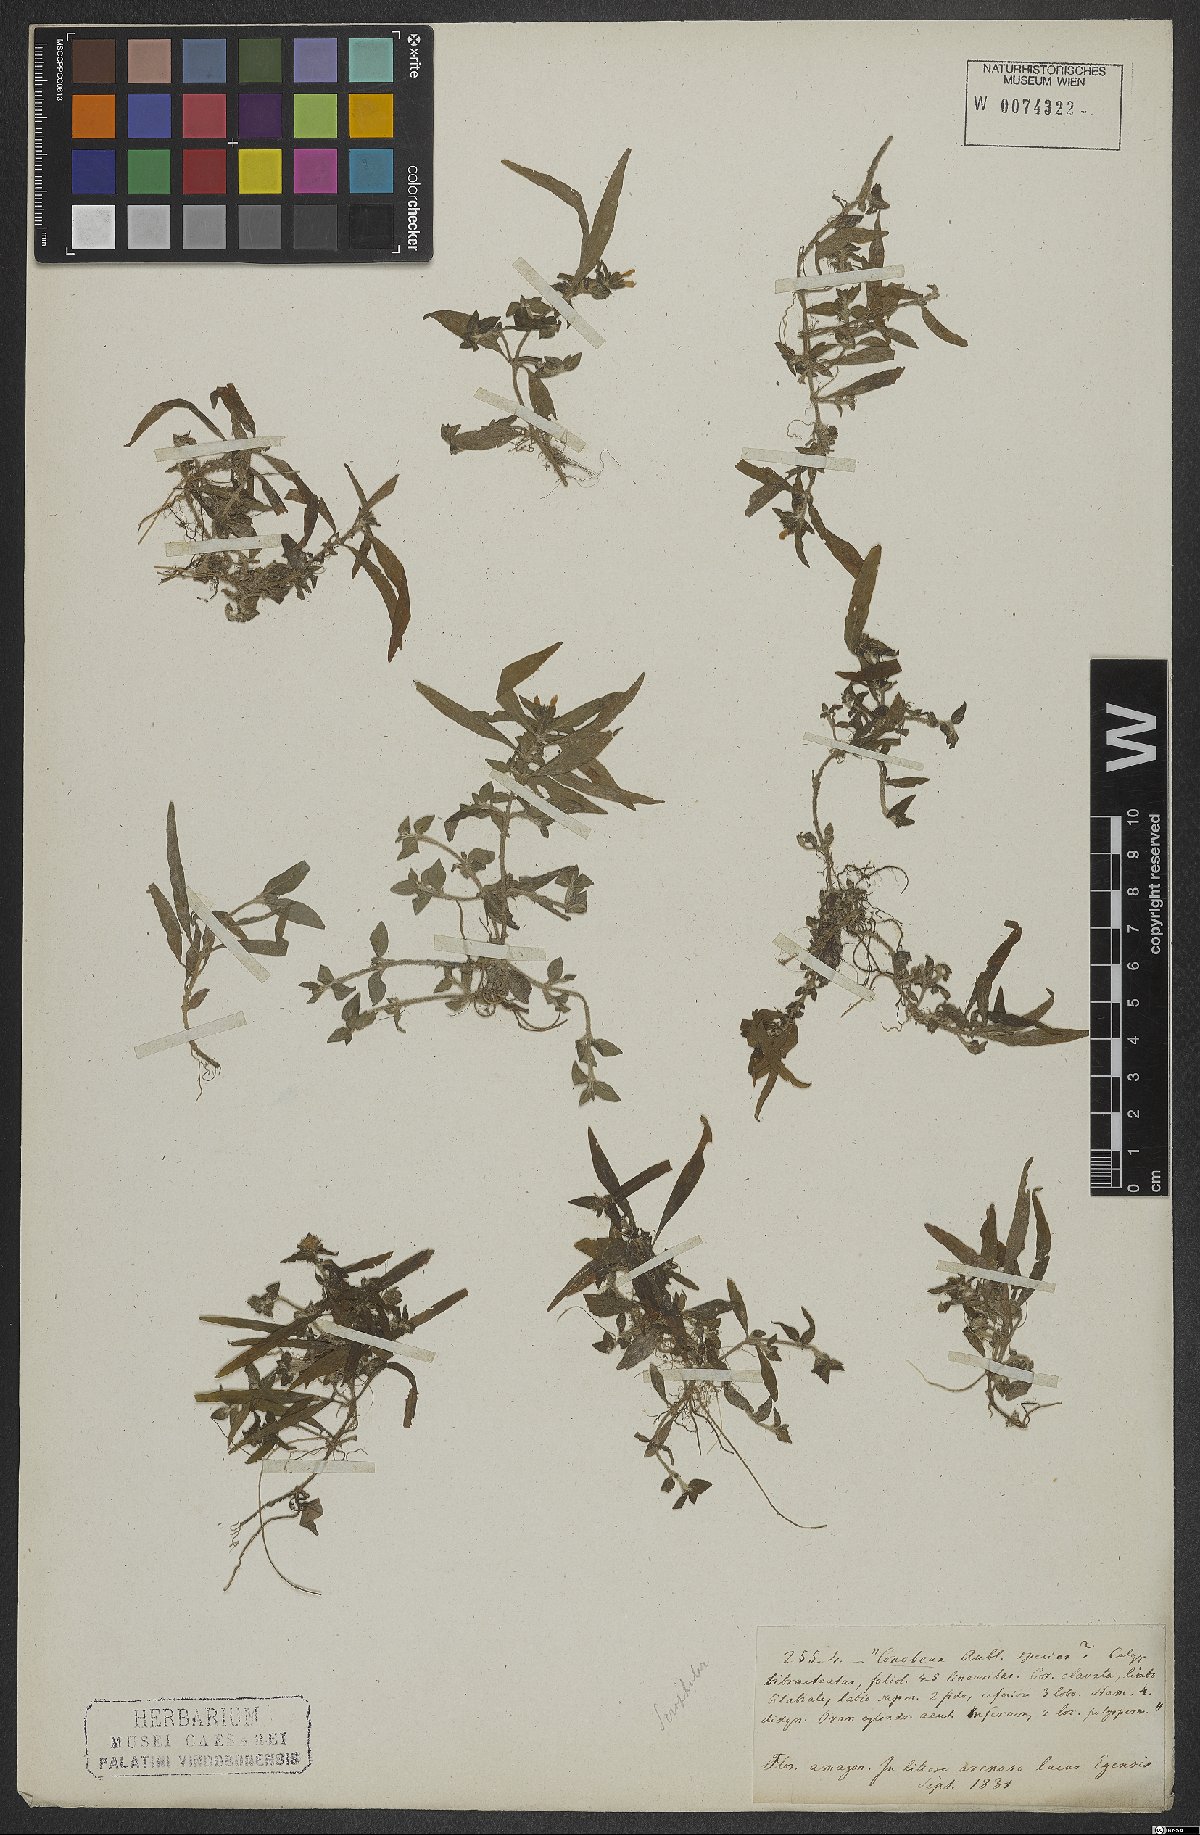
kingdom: Plantae
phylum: Tracheophyta
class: Magnoliopsida
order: Lamiales
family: Plantaginaceae
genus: Conobea
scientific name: Conobea
